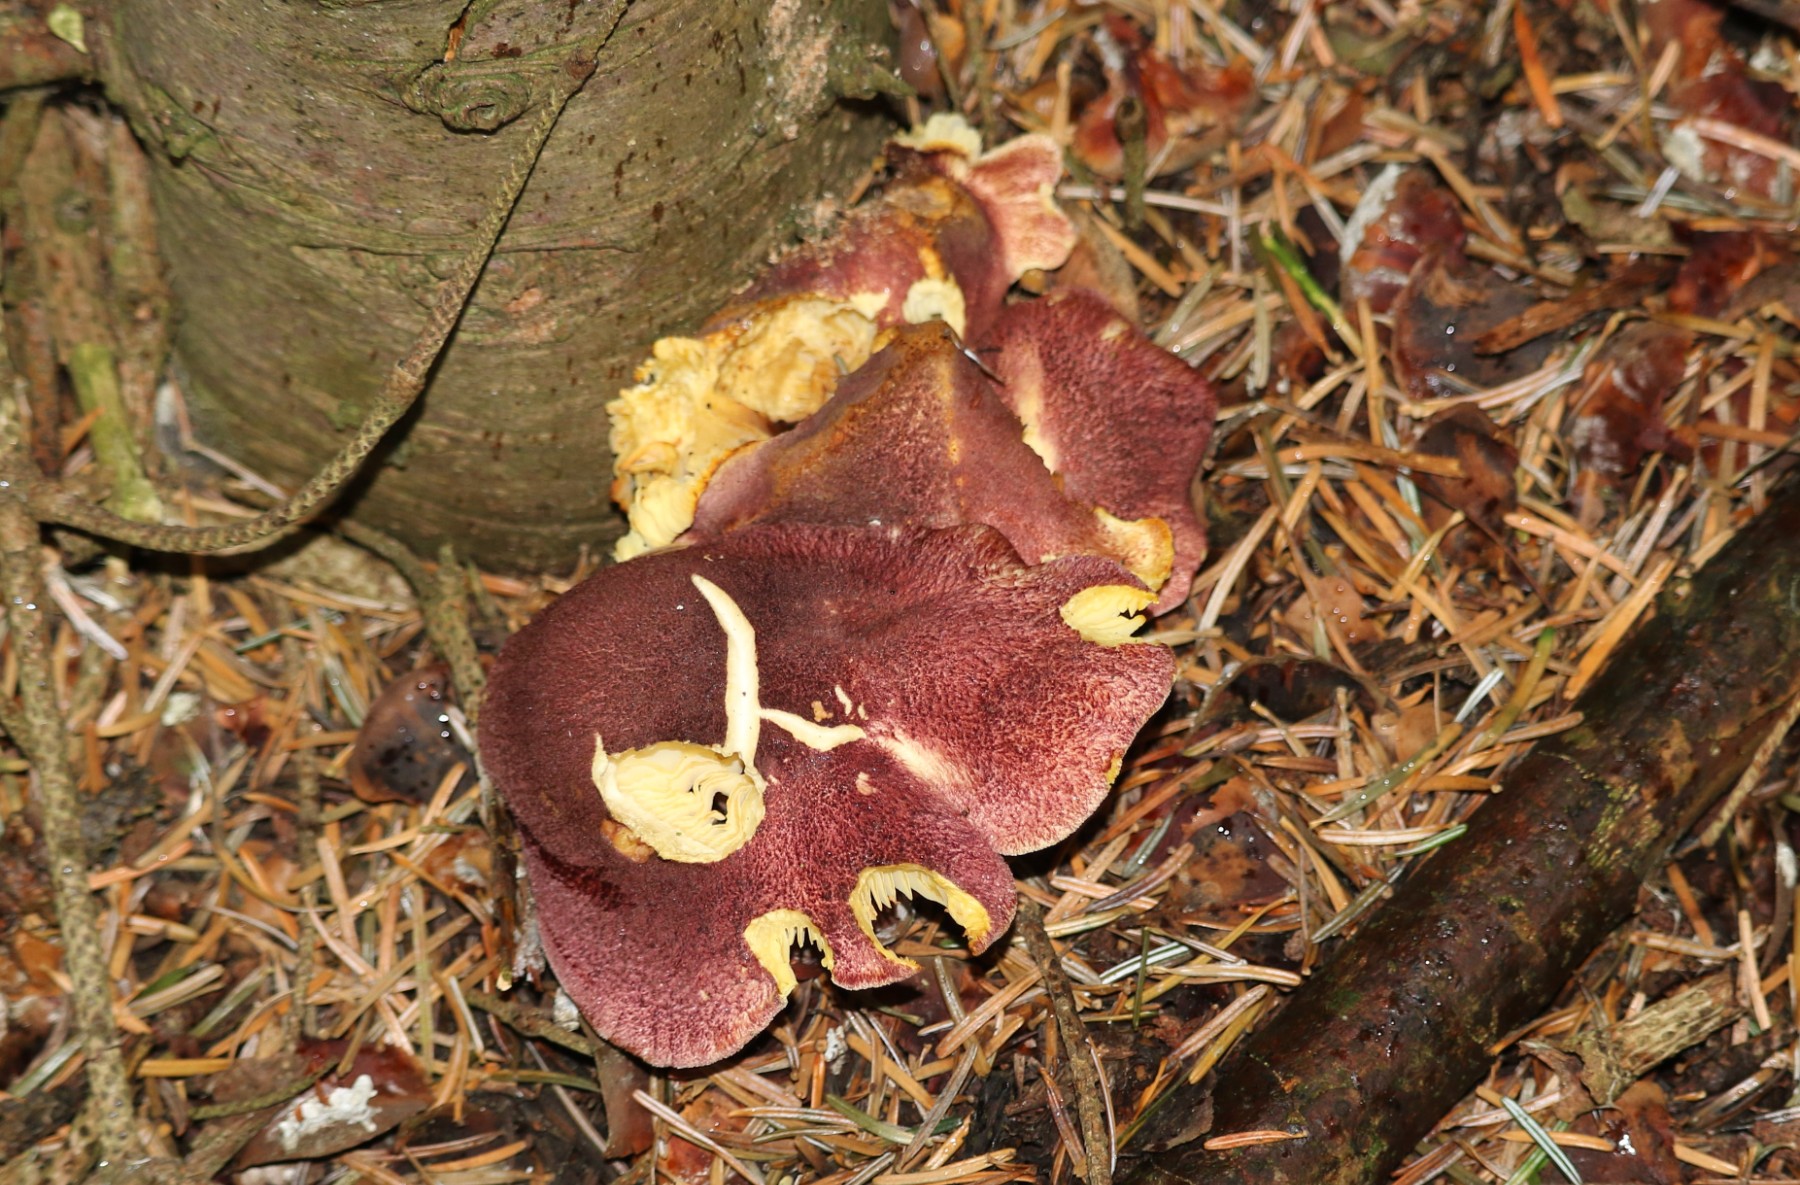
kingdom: Fungi
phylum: Basidiomycota
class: Agaricomycetes
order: Agaricales
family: Tricholomataceae
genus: Tricholomopsis
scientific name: Tricholomopsis rutilans
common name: purpur-væbnerhat
